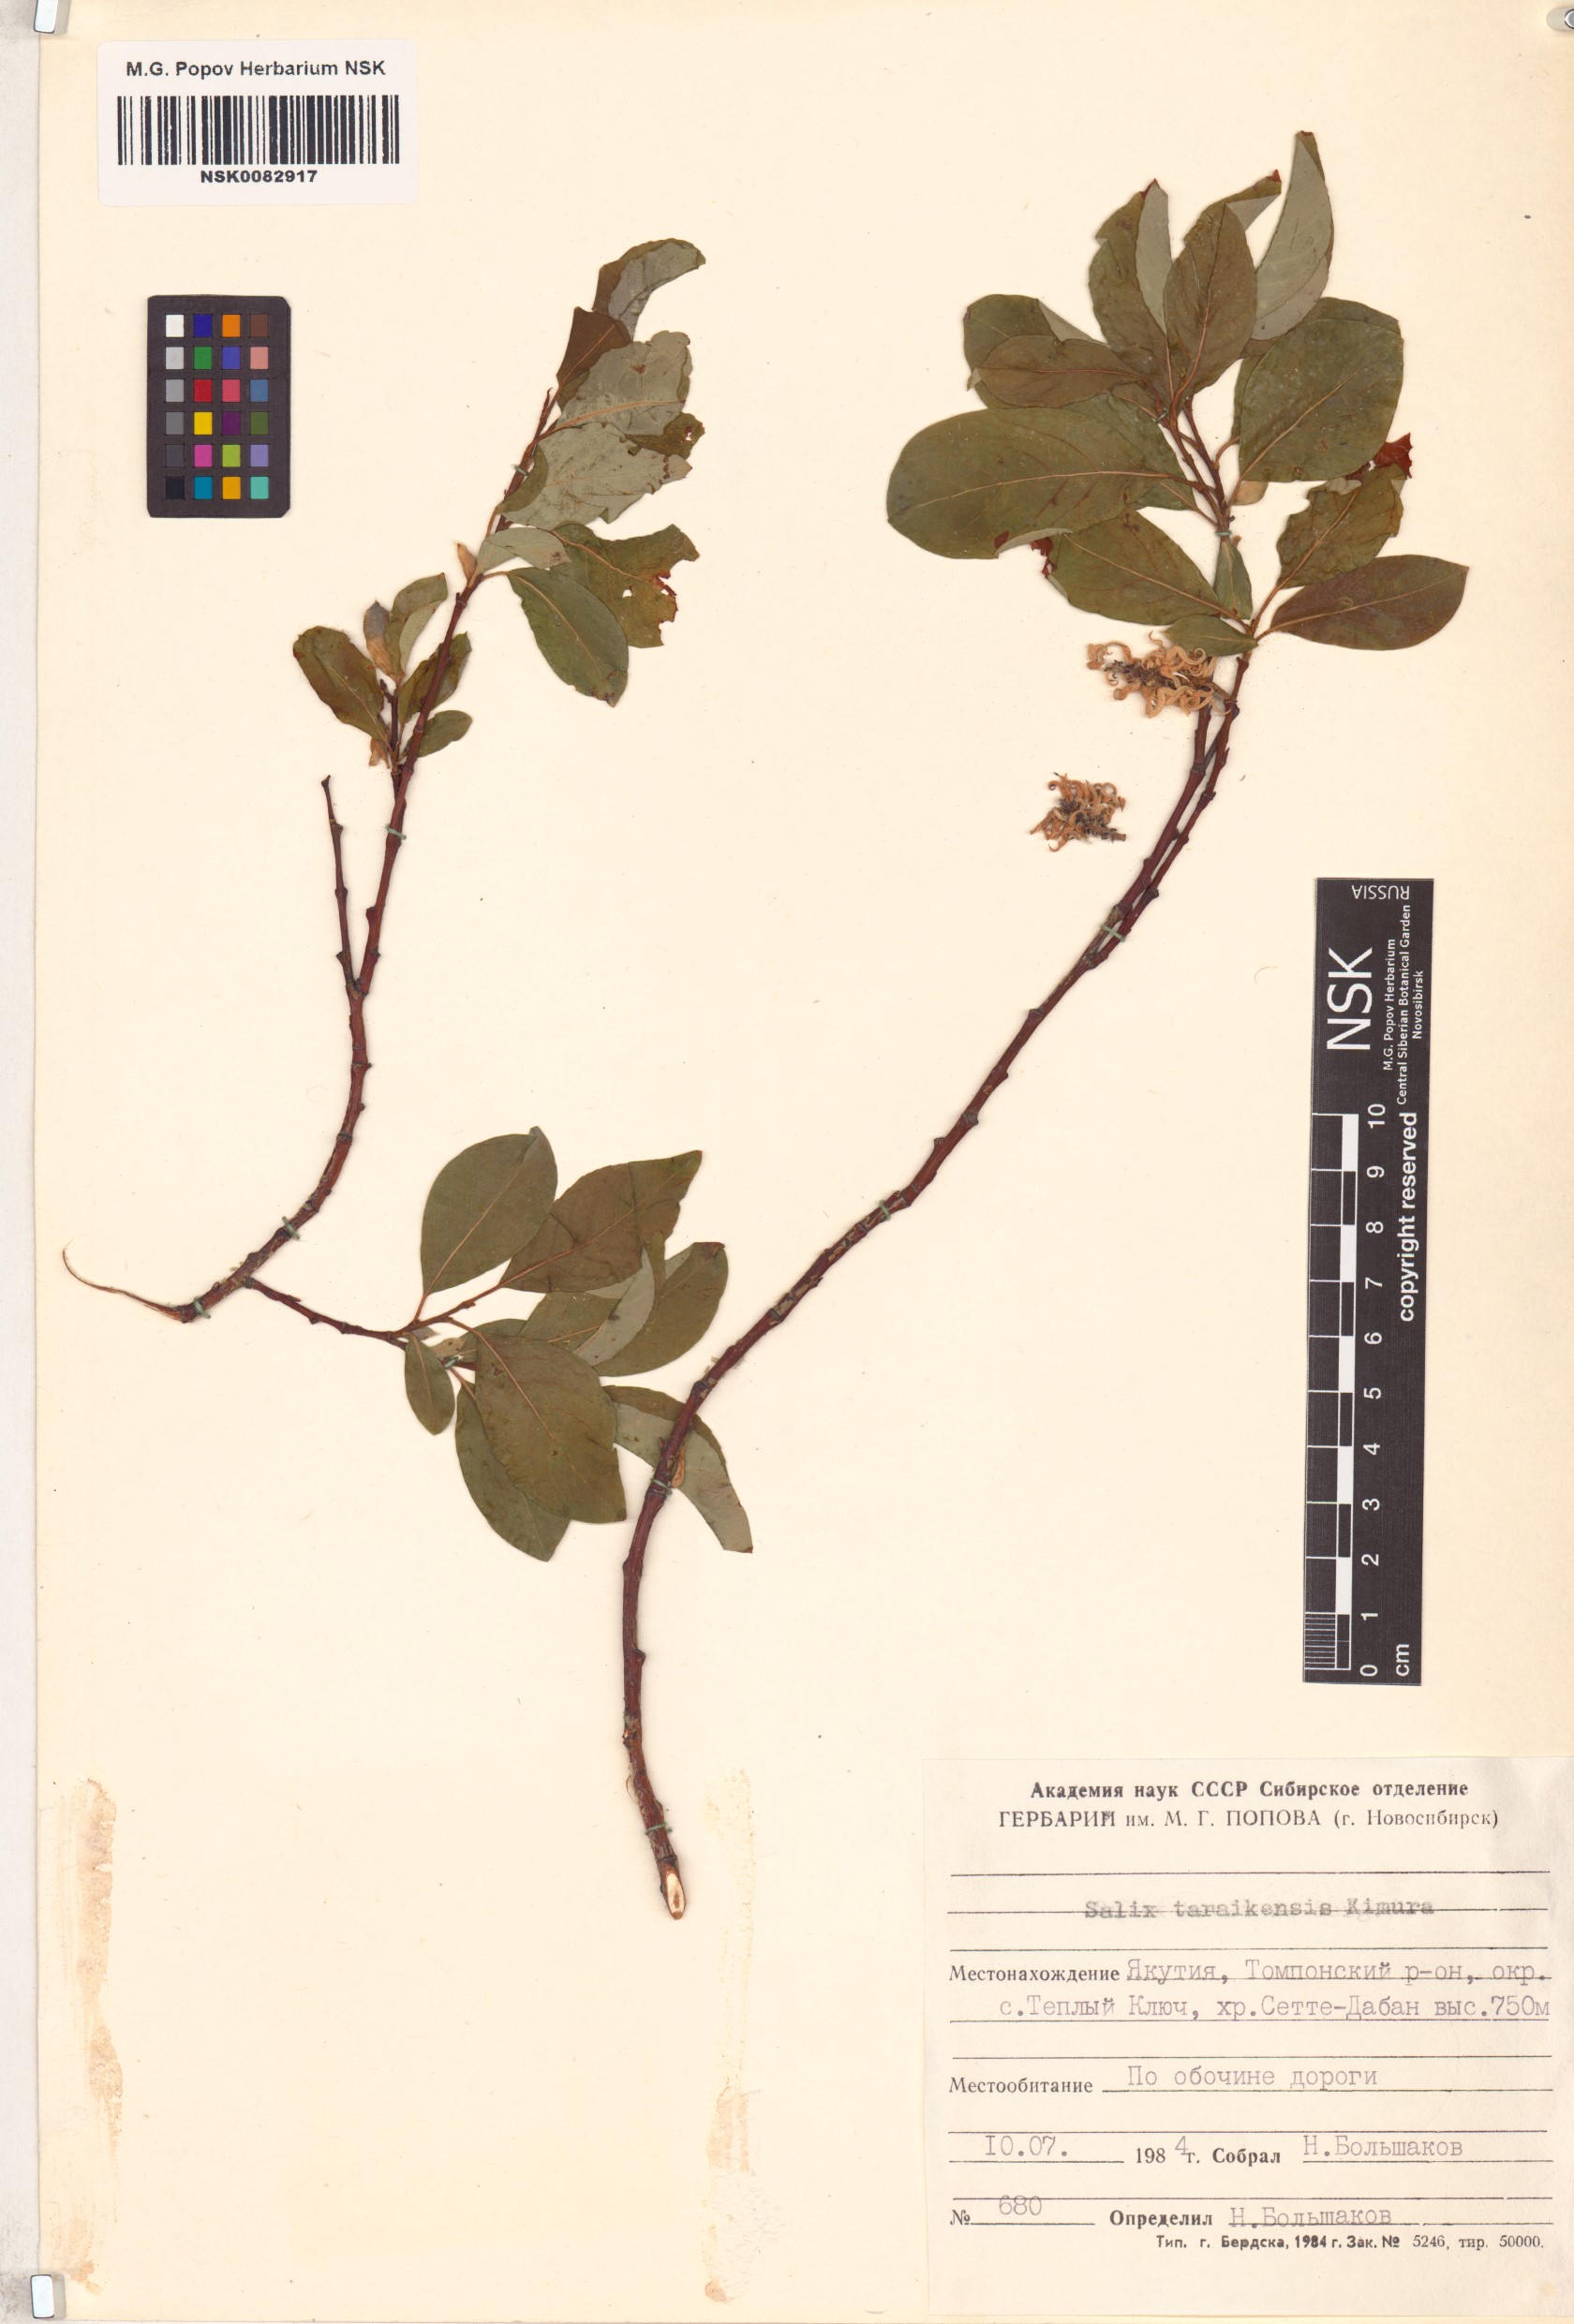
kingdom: Plantae
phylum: Tracheophyta
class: Magnoliopsida
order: Malpighiales
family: Salicaceae
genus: Salix
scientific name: Salix taraikensis
